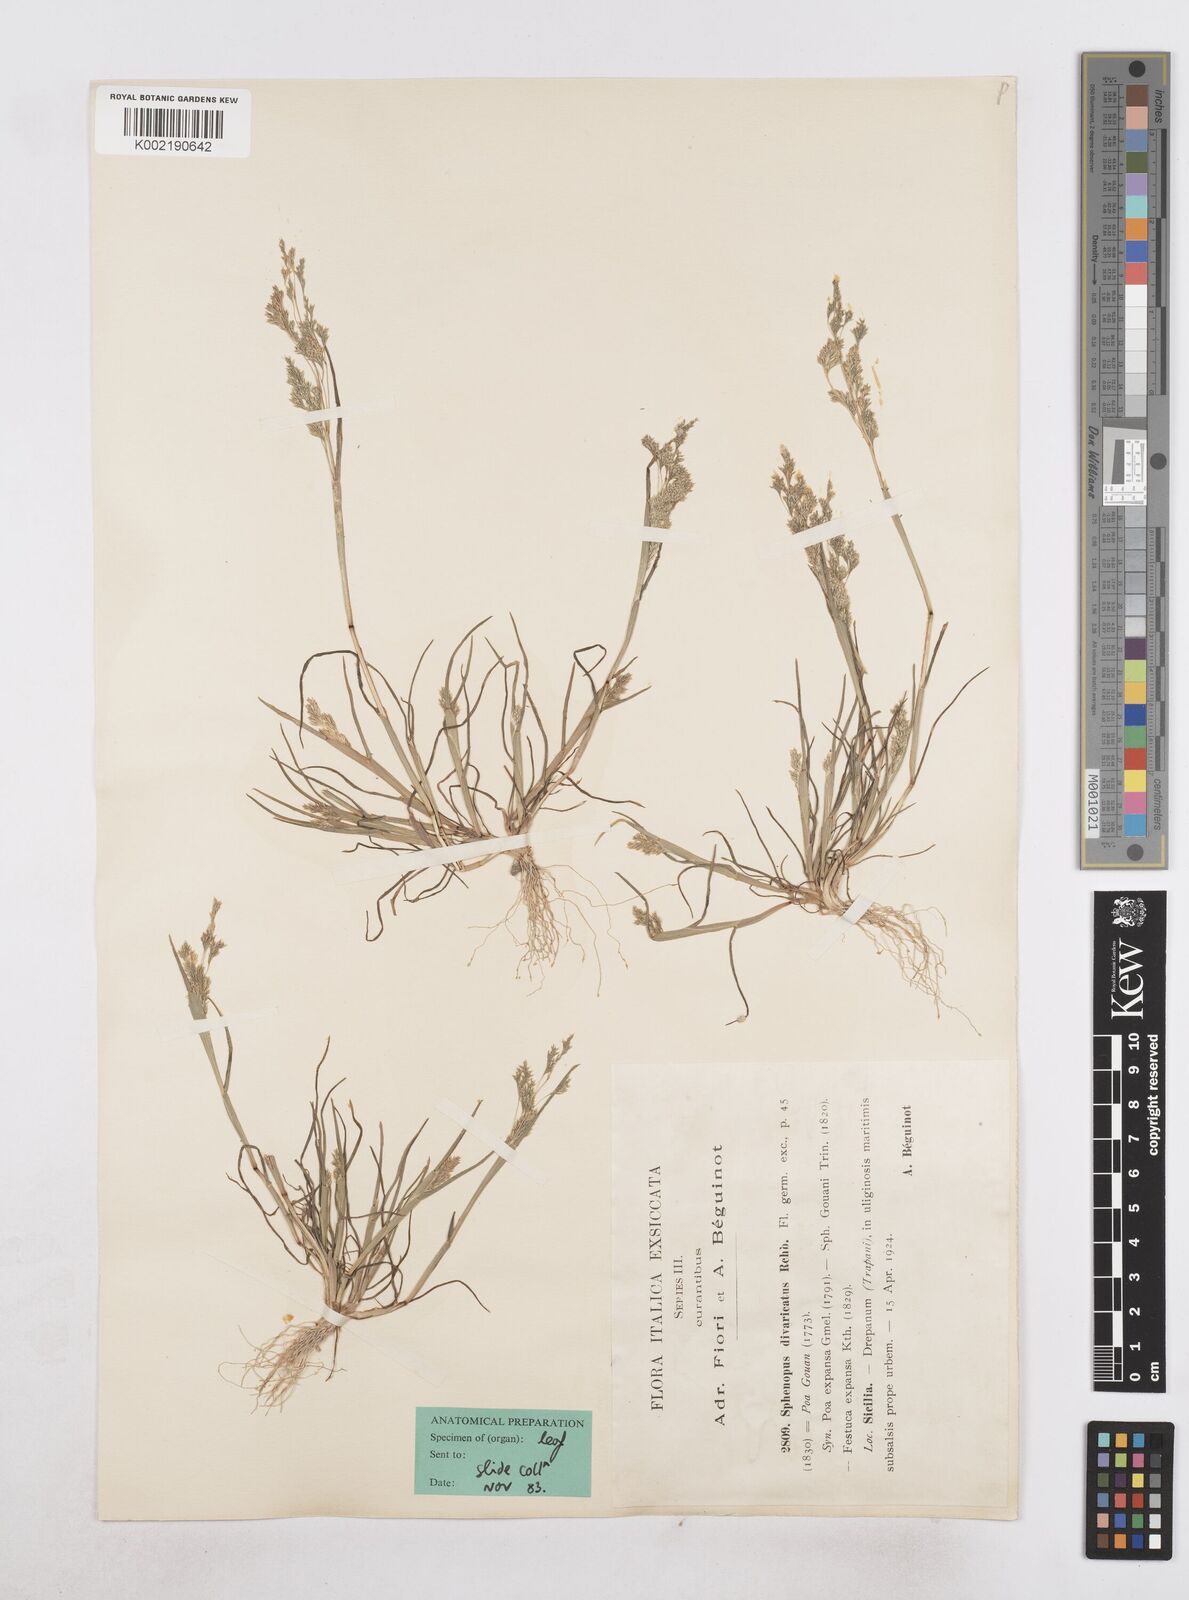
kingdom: Plantae
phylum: Tracheophyta
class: Liliopsida
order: Poales
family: Poaceae
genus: Sphenopus
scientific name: Sphenopus divaricatus
